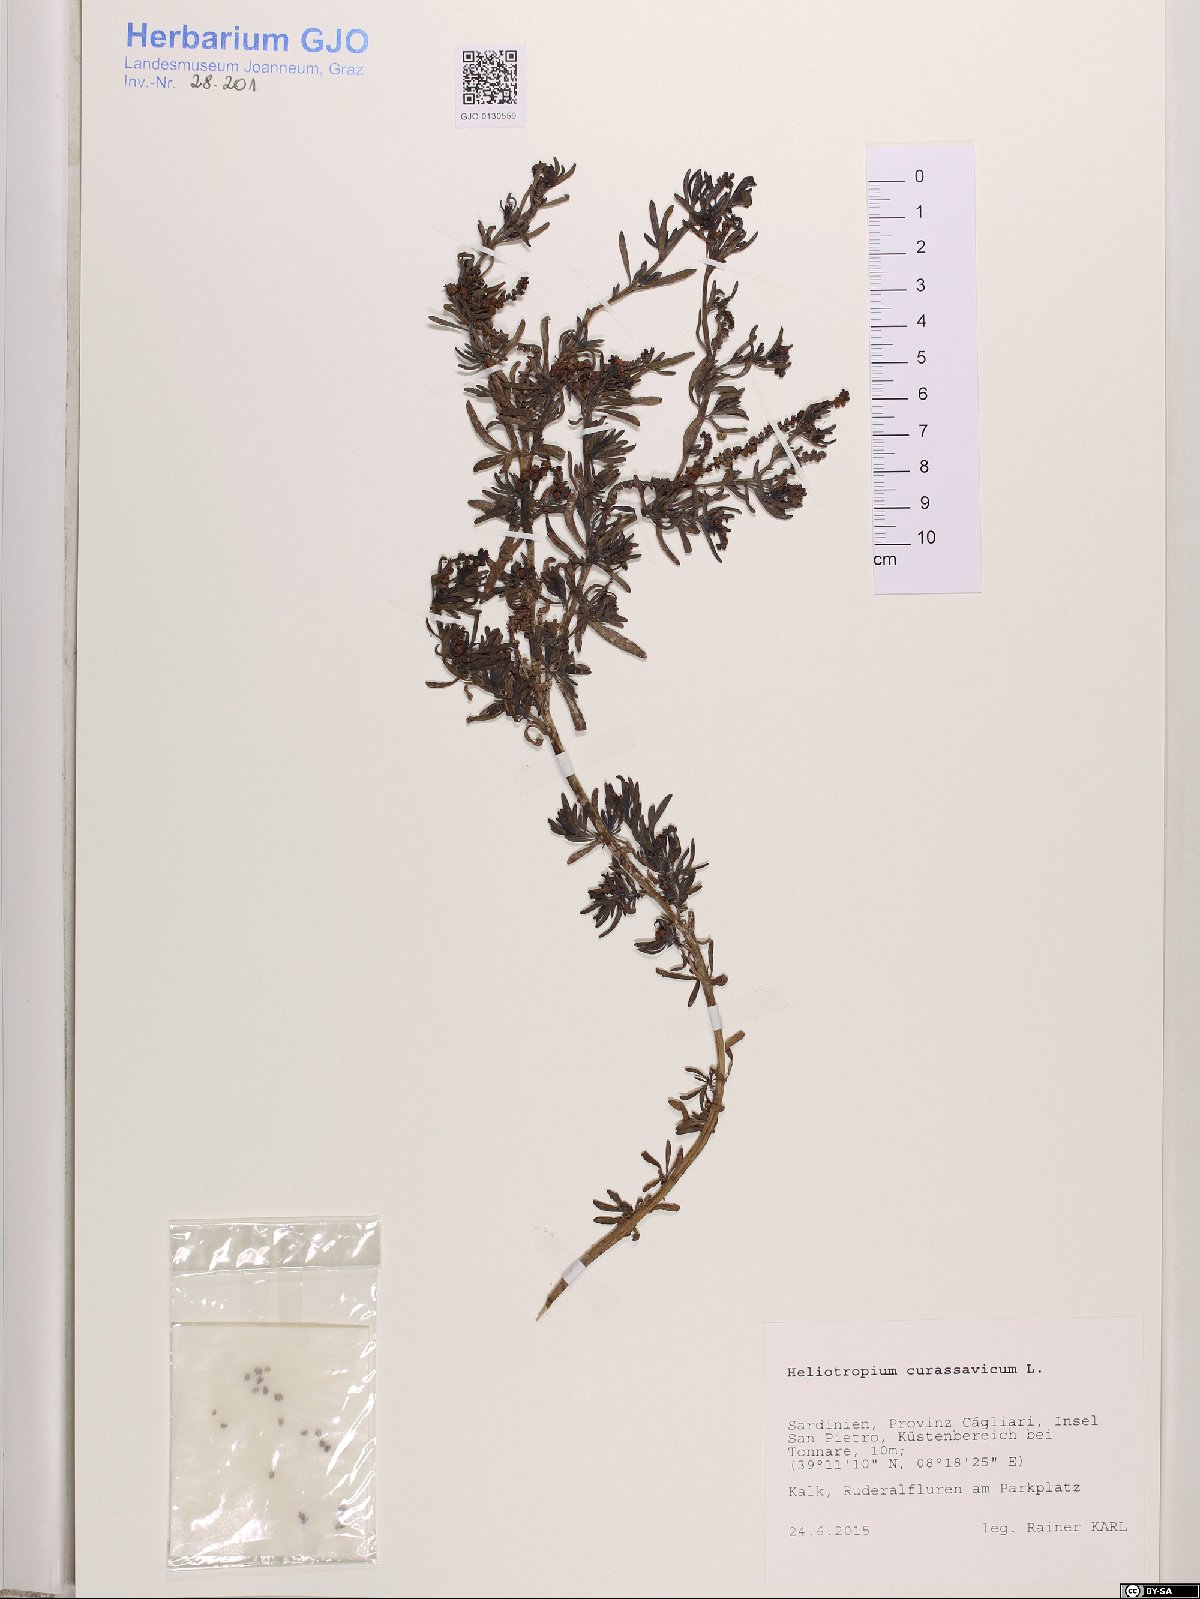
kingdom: Plantae
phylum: Tracheophyta
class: Magnoliopsida
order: Boraginales
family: Heliotropiaceae
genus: Heliotropium
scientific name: Heliotropium curassavicum
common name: Seaside heliotrope
